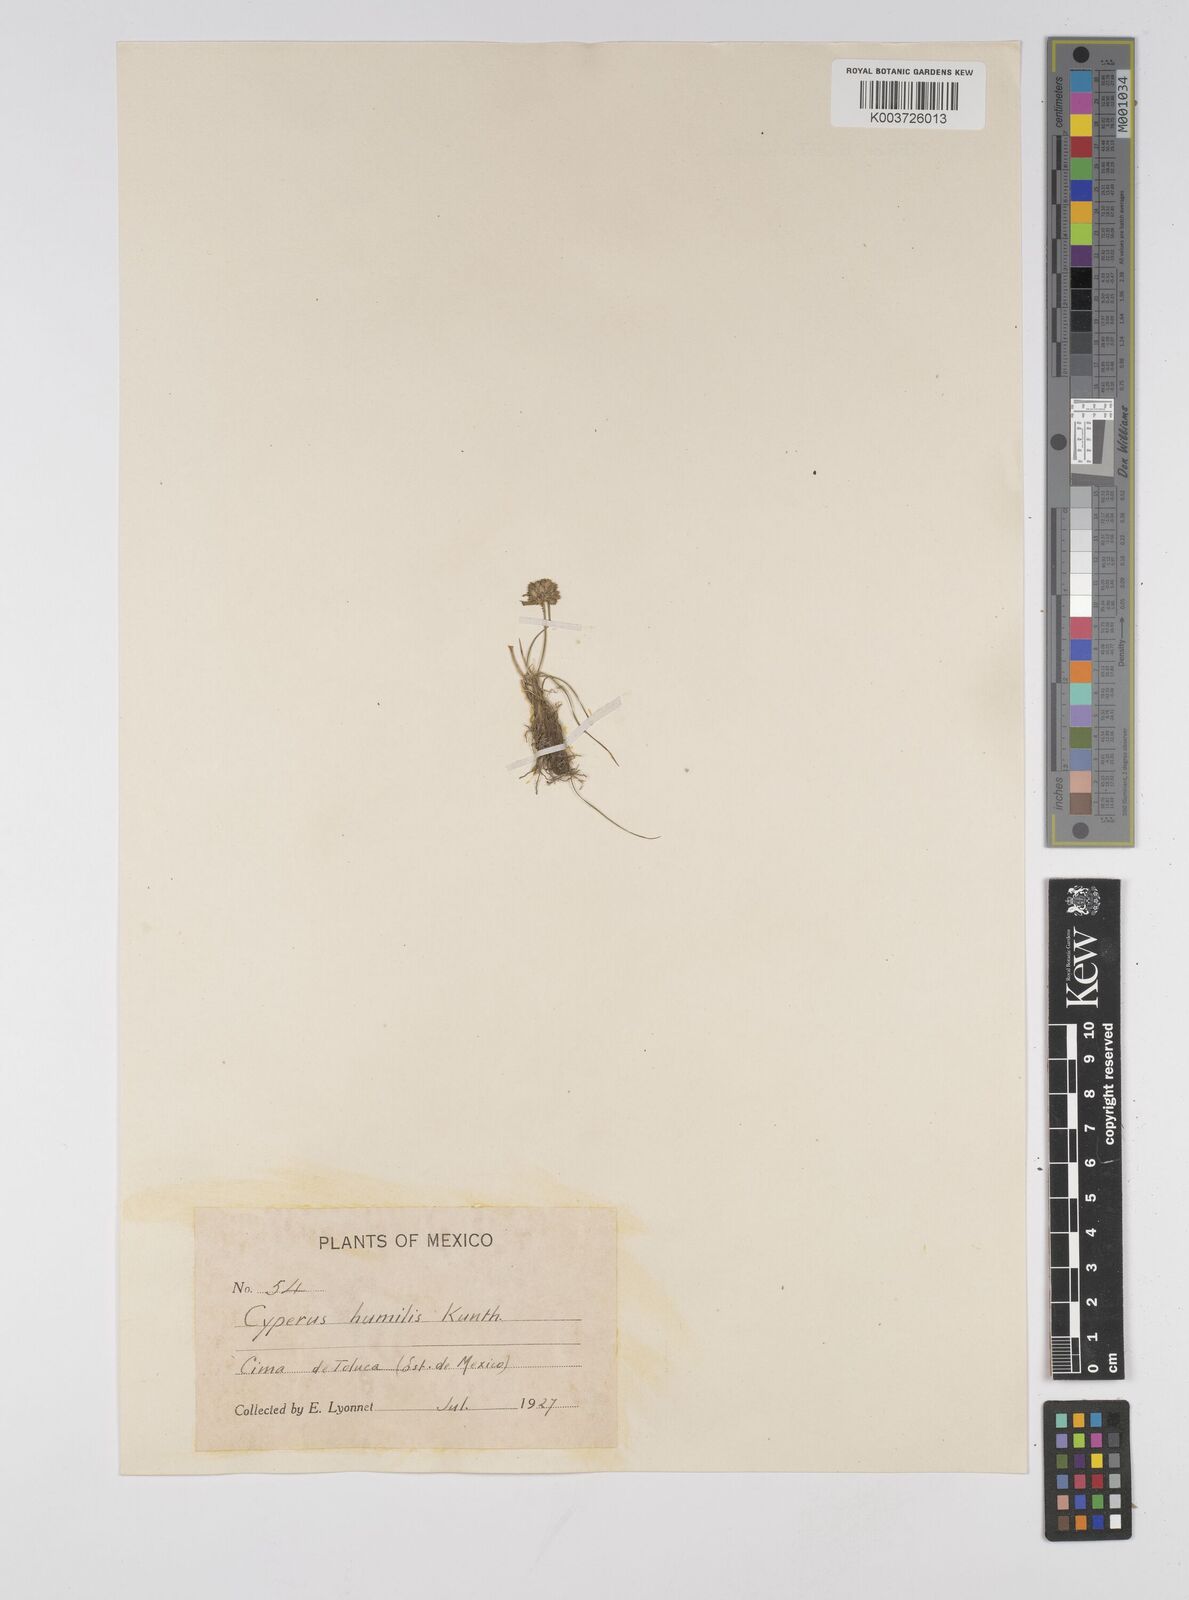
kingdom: Plantae
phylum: Tracheophyta
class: Liliopsida
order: Poales
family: Cyperaceae
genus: Cyperus
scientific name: Cyperus seslerioides
